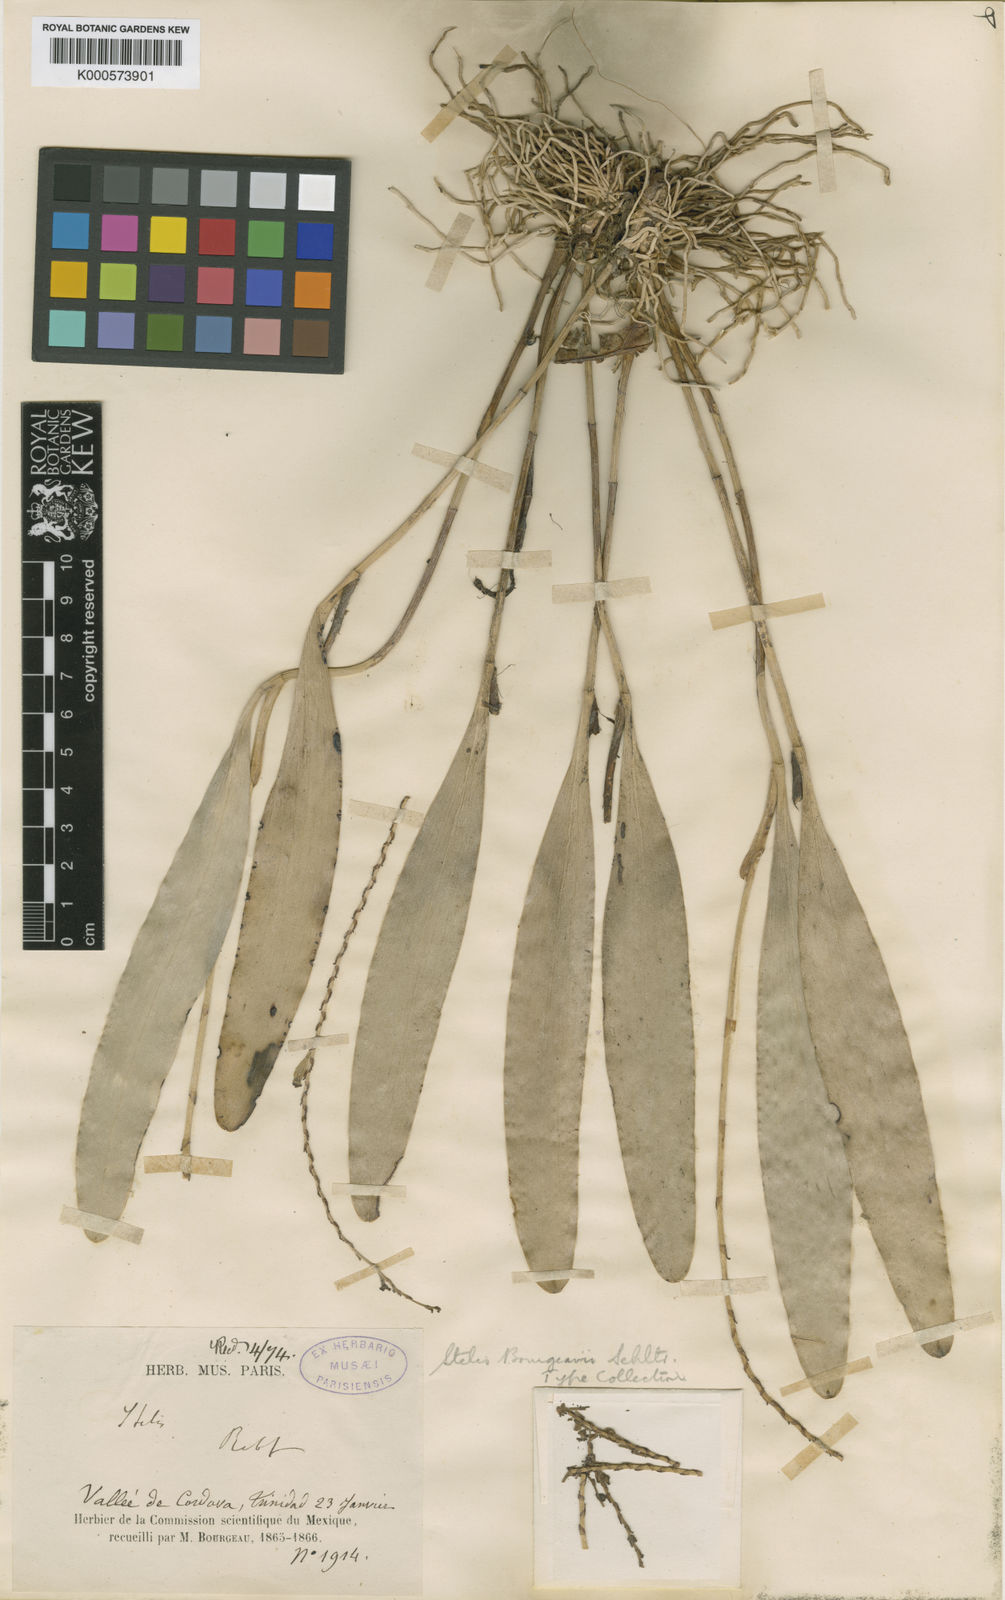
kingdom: Plantae
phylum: Tracheophyta
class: Liliopsida
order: Asparagales
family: Orchidaceae
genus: Stelis
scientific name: Stelis purpurascens
